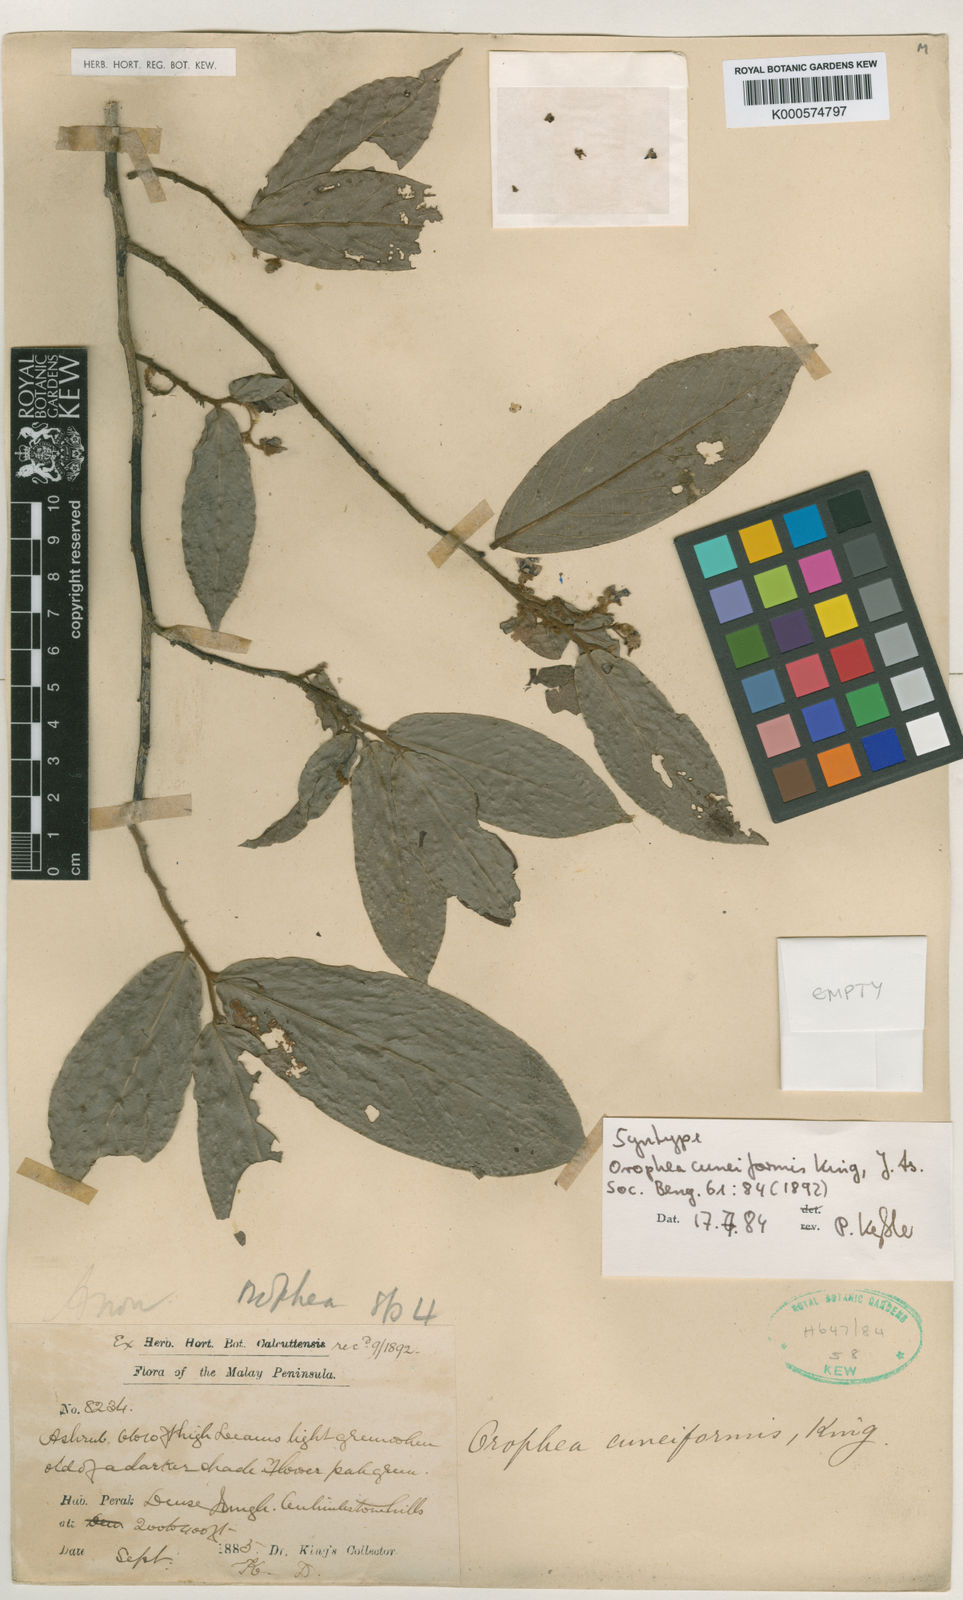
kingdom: Plantae
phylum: Tracheophyta
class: Magnoliopsida
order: Magnoliales
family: Annonaceae
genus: Orophea
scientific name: Orophea cuneiformis
